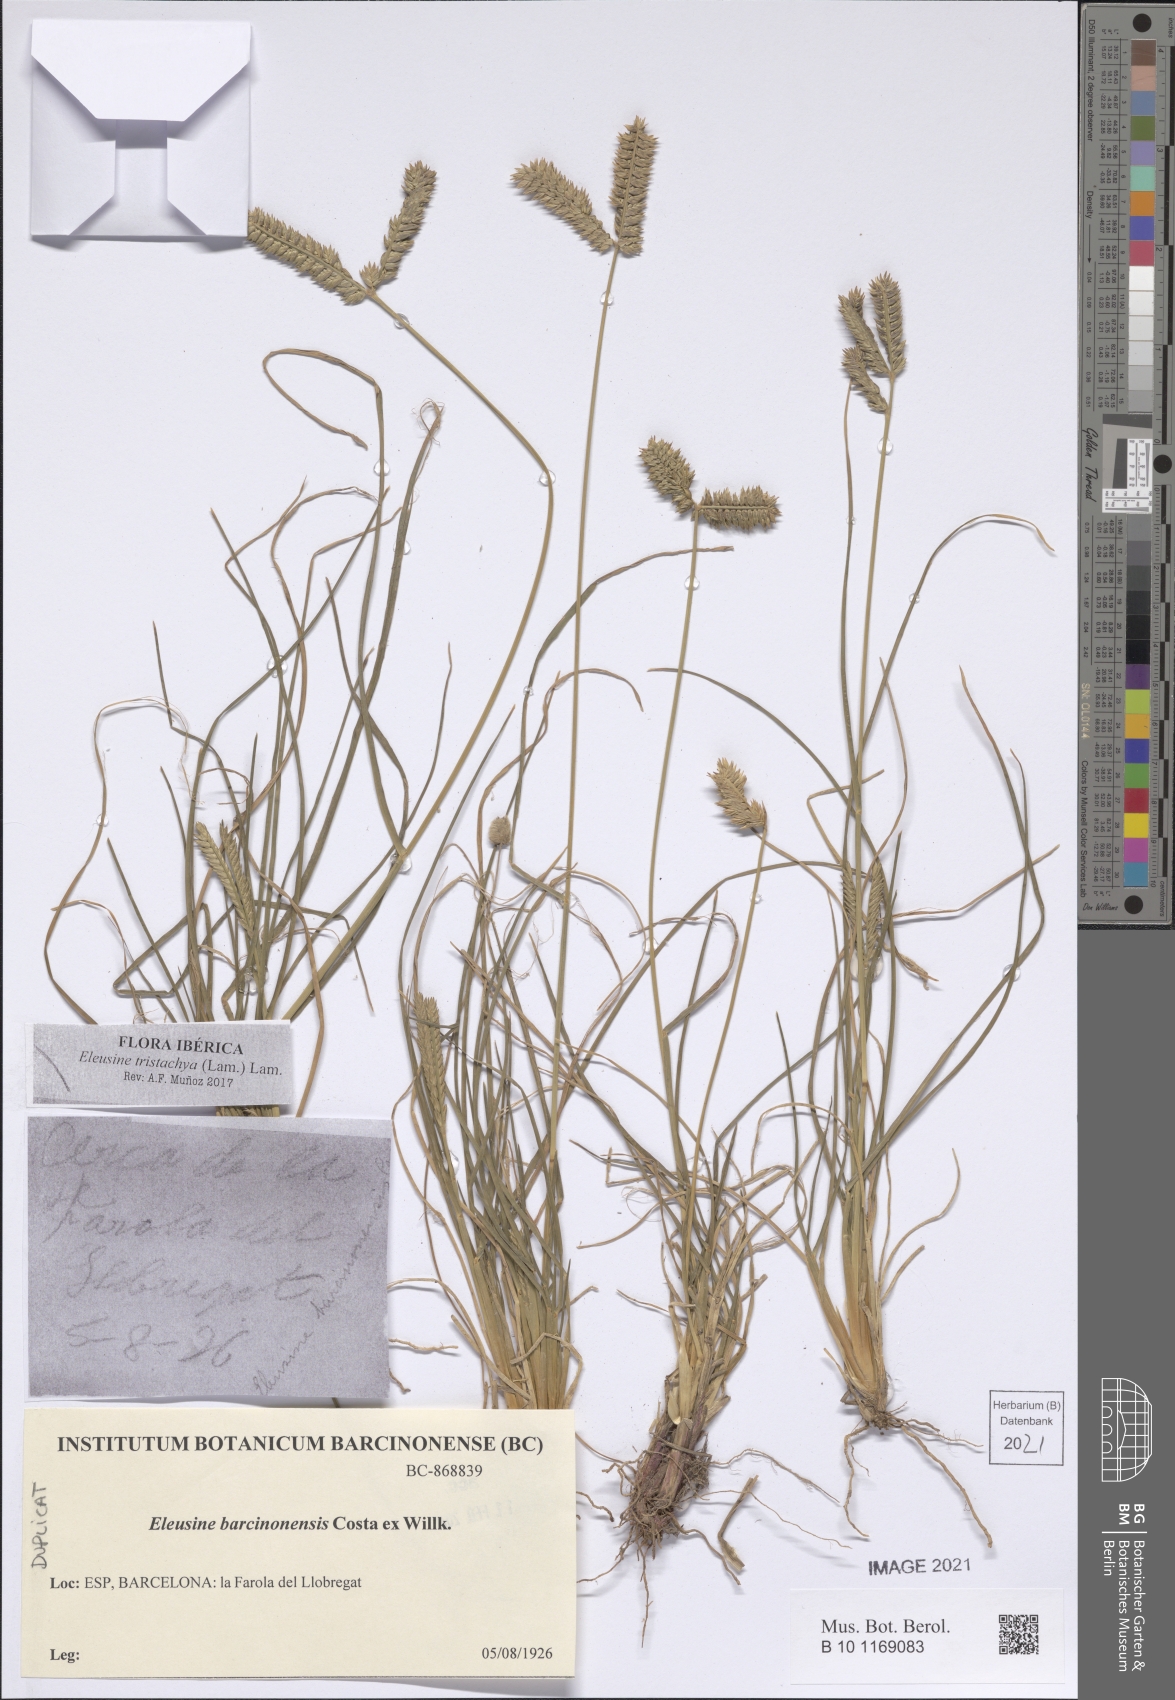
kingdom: Plantae
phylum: Tracheophyta
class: Liliopsida
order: Poales
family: Poaceae
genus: Eleusine
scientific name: Eleusine tristachya
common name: American yard-grass
